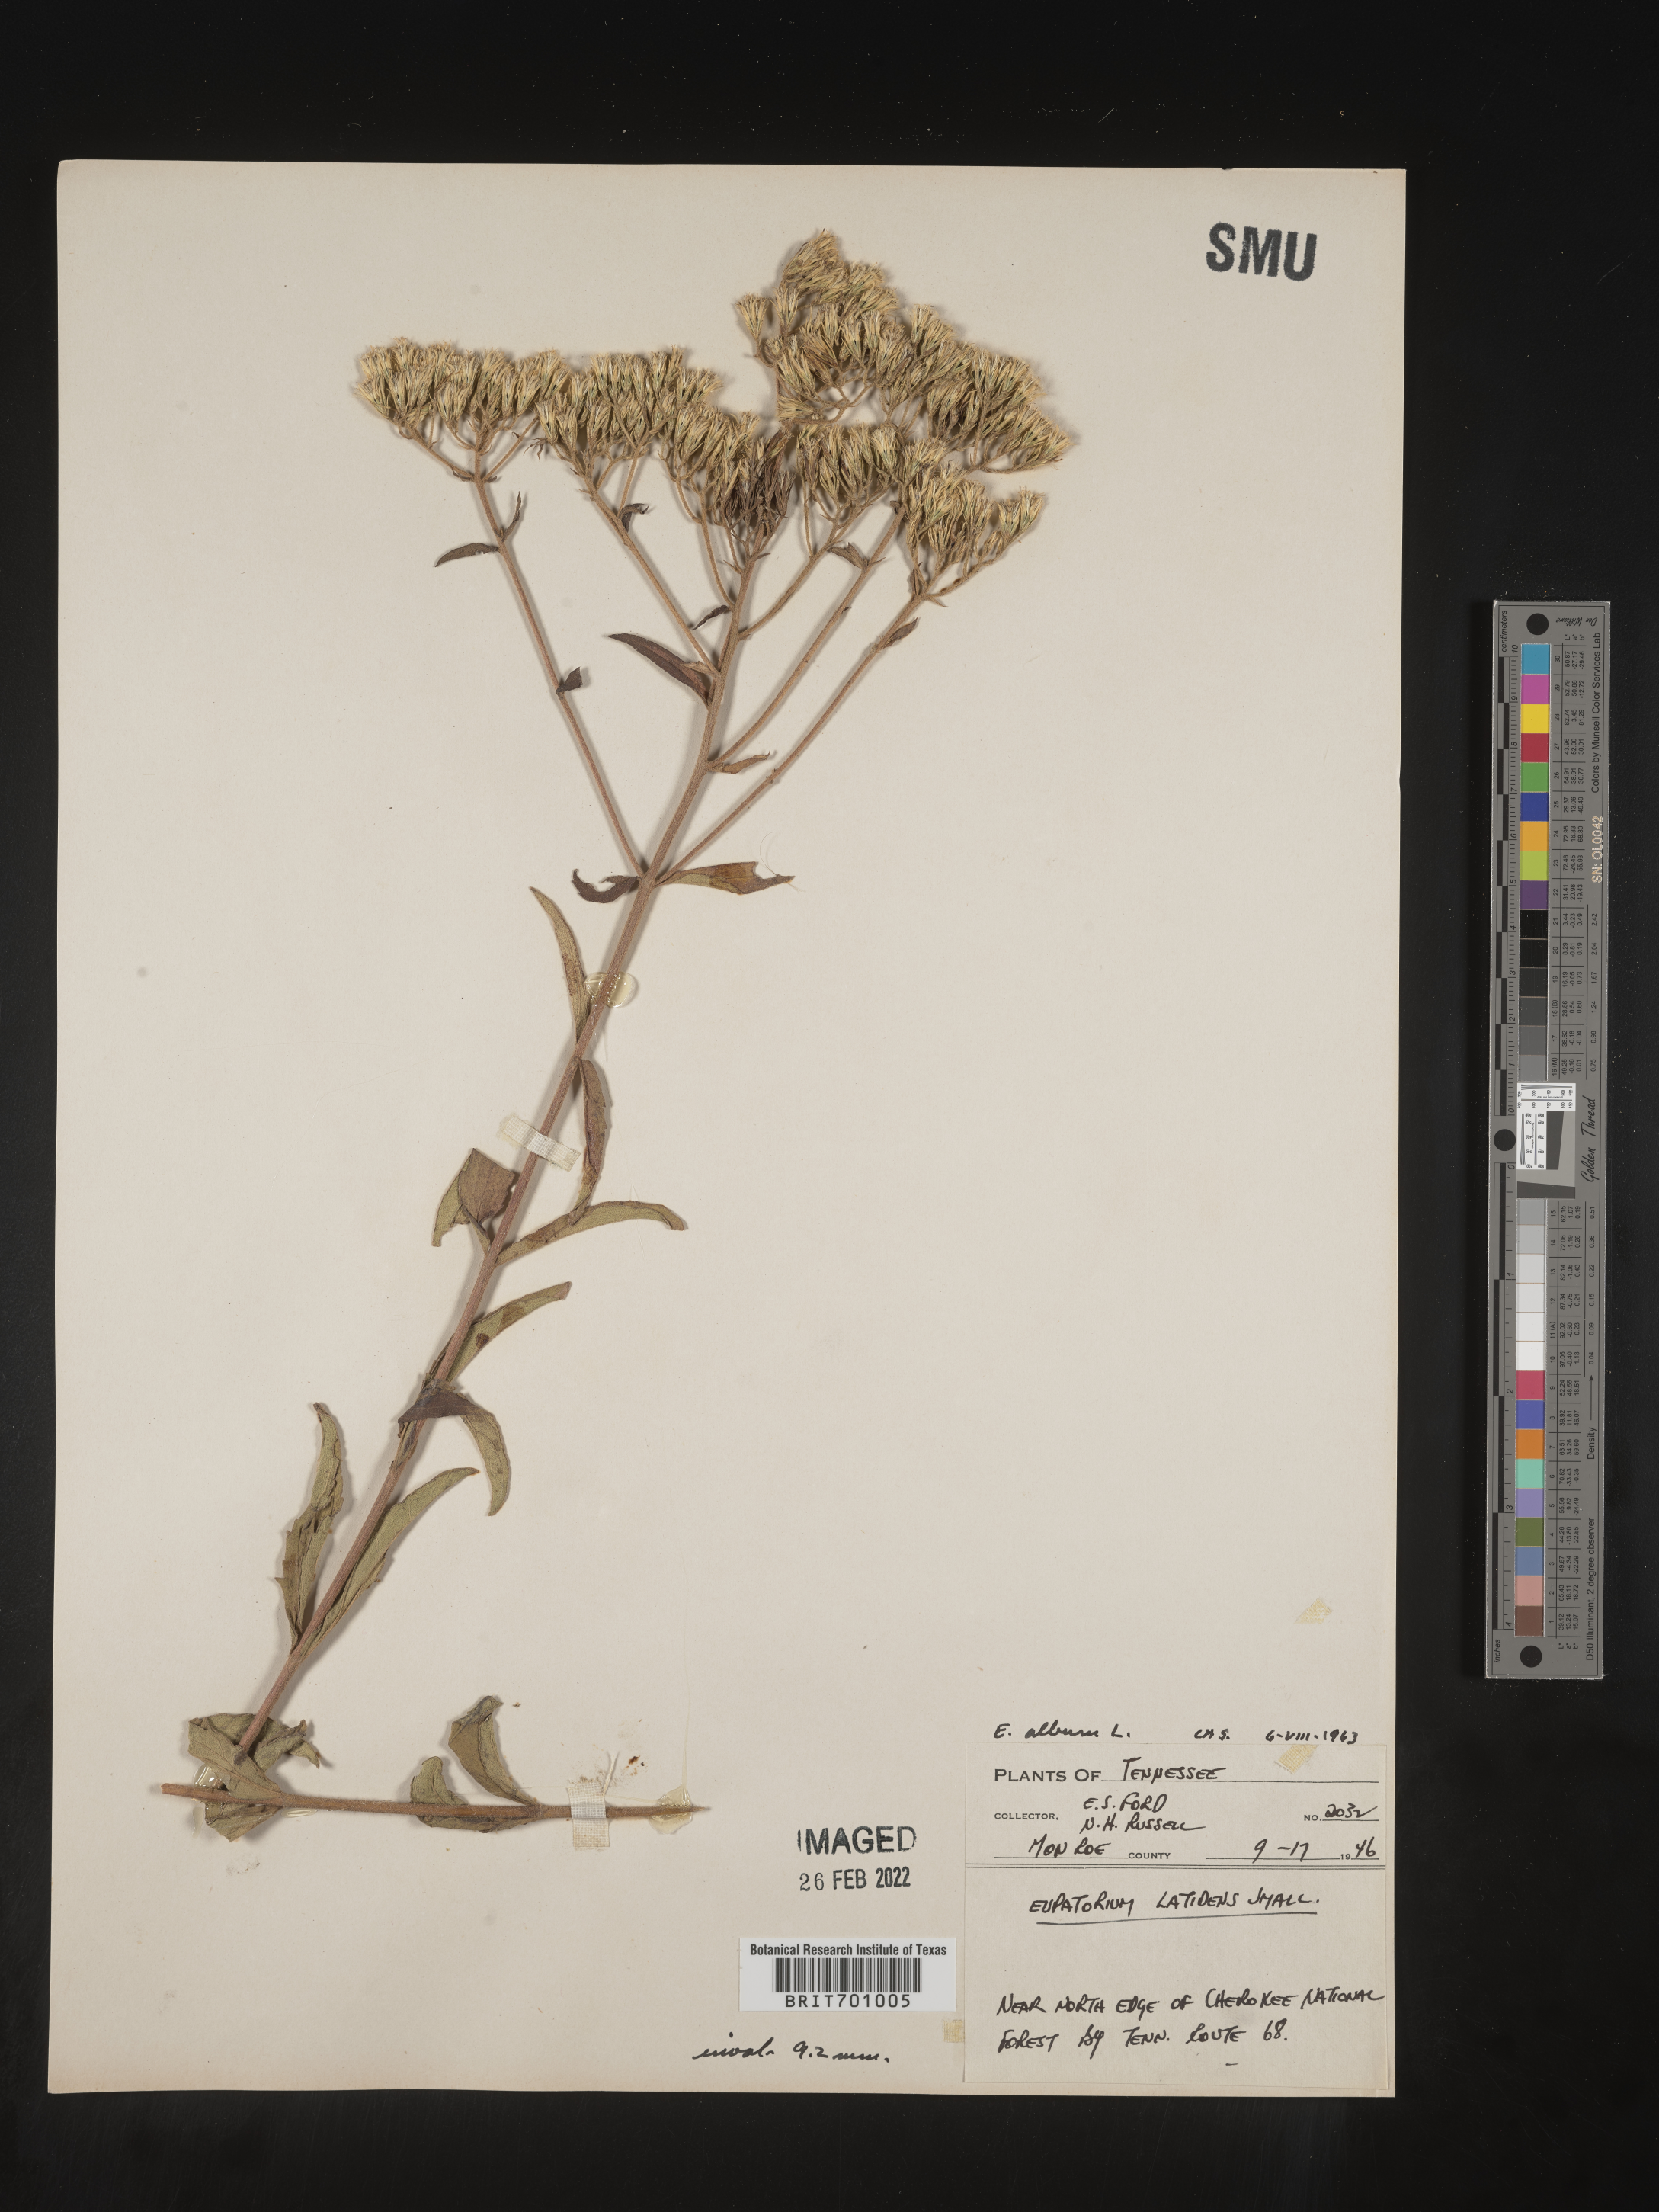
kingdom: Plantae
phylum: Tracheophyta
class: Magnoliopsida
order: Asterales
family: Asteraceae
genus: Eupatorium
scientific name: Eupatorium album
